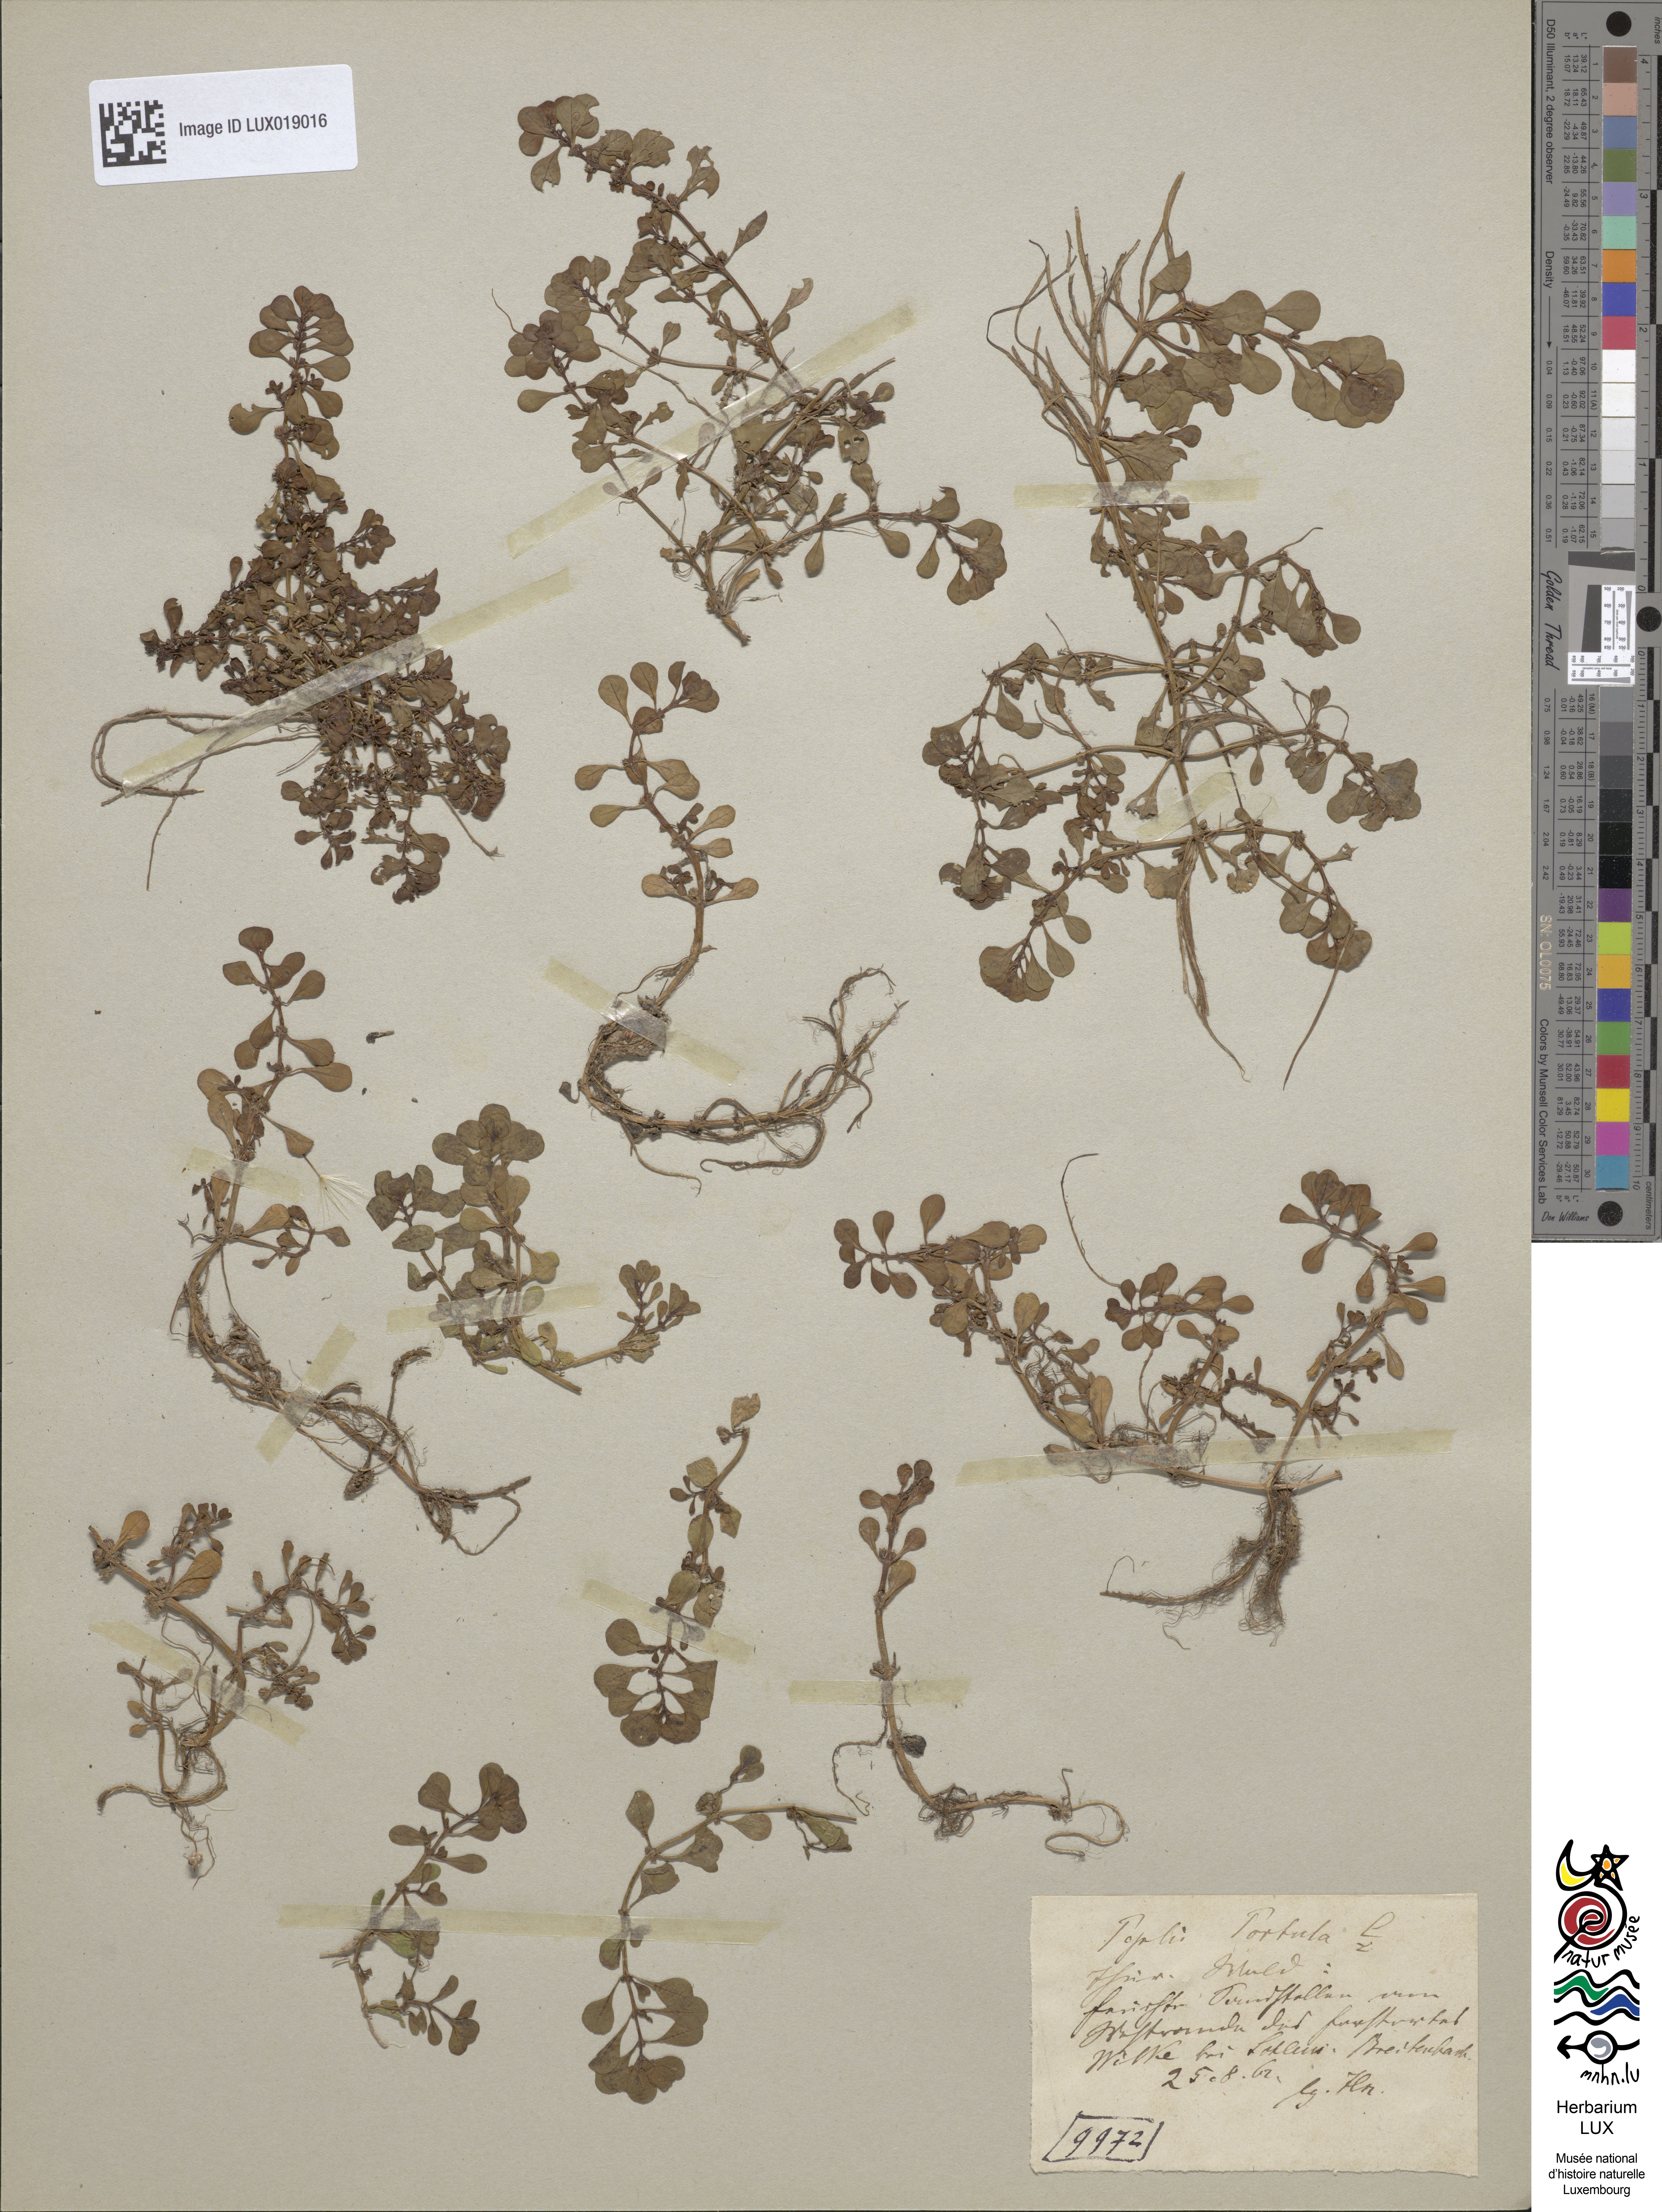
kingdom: Plantae
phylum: Tracheophyta
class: Magnoliopsida
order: Myrtales
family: Lythraceae
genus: Lythrum
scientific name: Lythrum portula
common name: Water purslane
